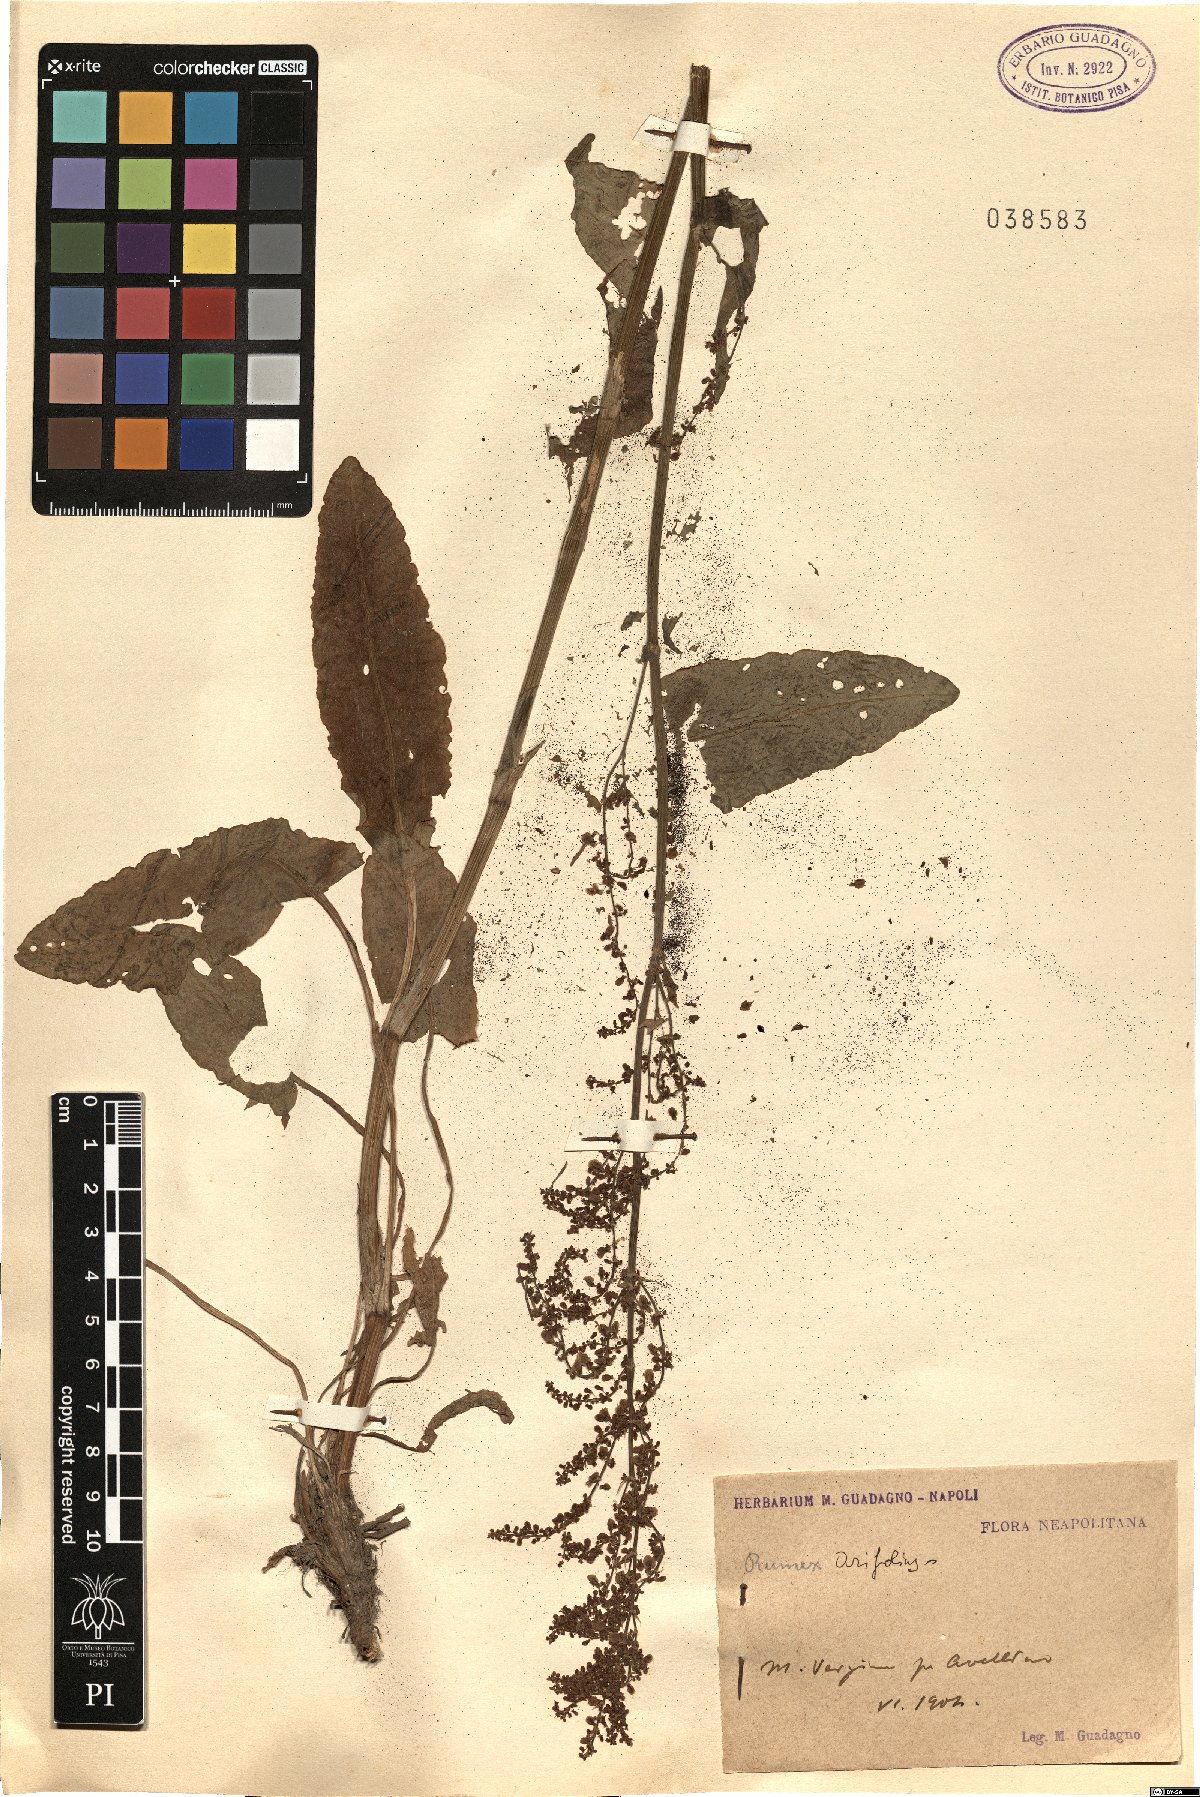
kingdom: Plantae
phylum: Tracheophyta
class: Magnoliopsida
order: Caryophyllales
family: Polygonaceae
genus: Rumex
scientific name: Rumex arifolius
